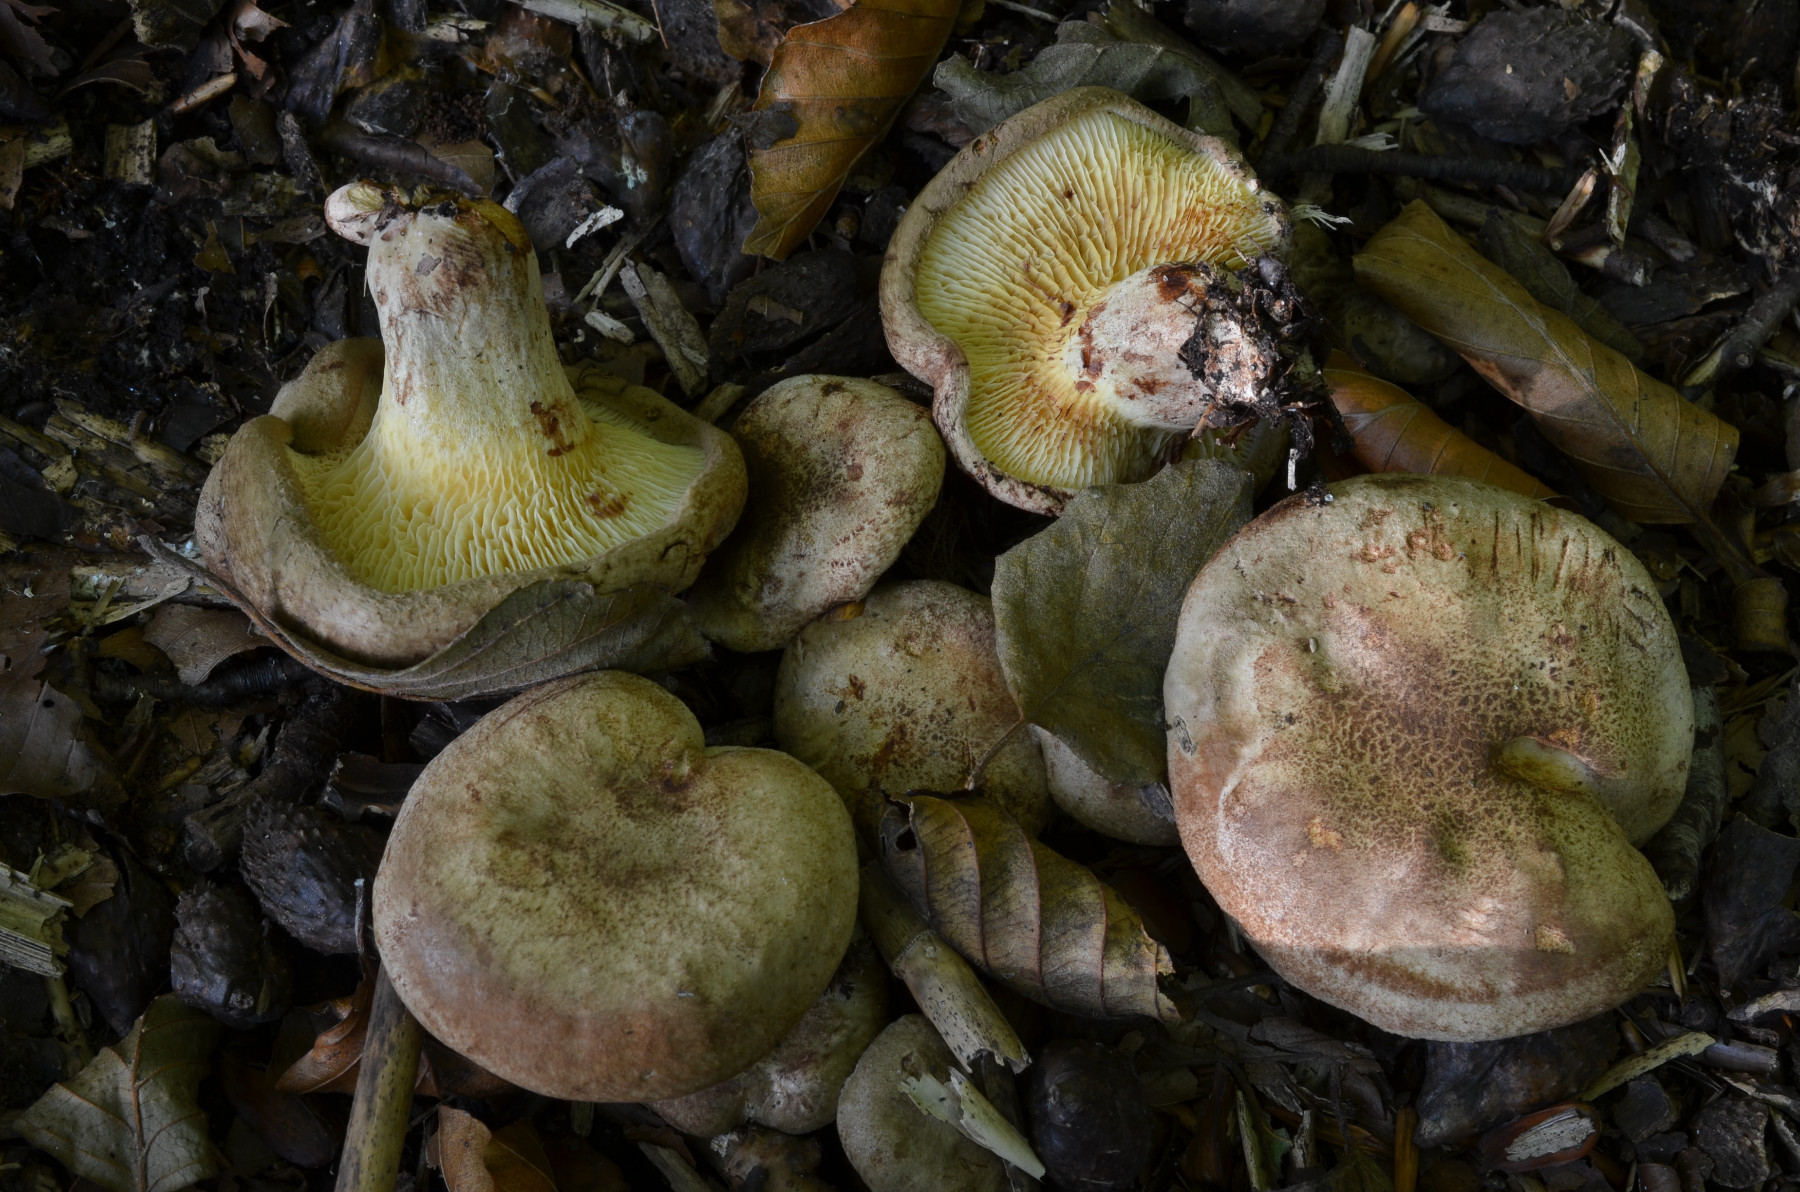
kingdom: Fungi
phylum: Basidiomycota
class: Agaricomycetes
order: Boletales
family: Paxillaceae
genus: Paxillus
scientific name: Paxillus olivellus
